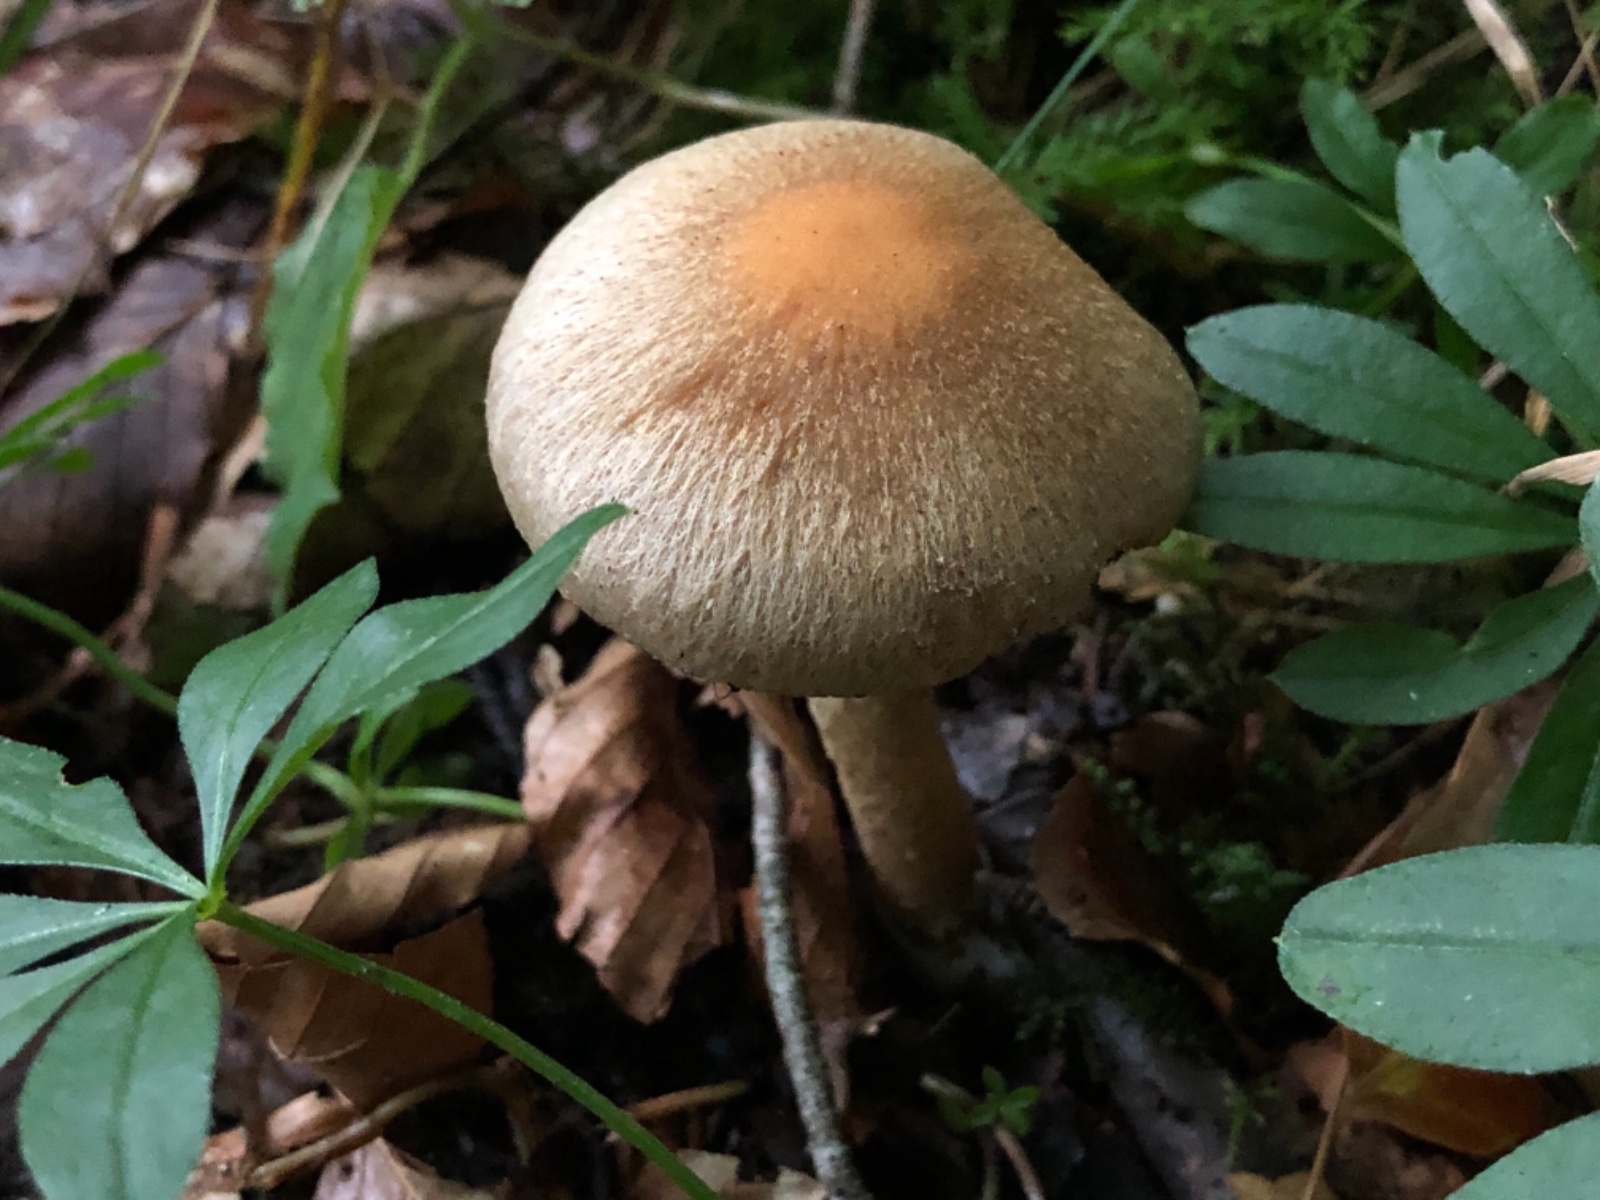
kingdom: Fungi
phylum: Basidiomycota
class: Agaricomycetes
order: Agaricales
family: Psathyrellaceae
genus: Lacrymaria
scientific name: Lacrymaria lacrymabunda
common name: grædende mørkhat
